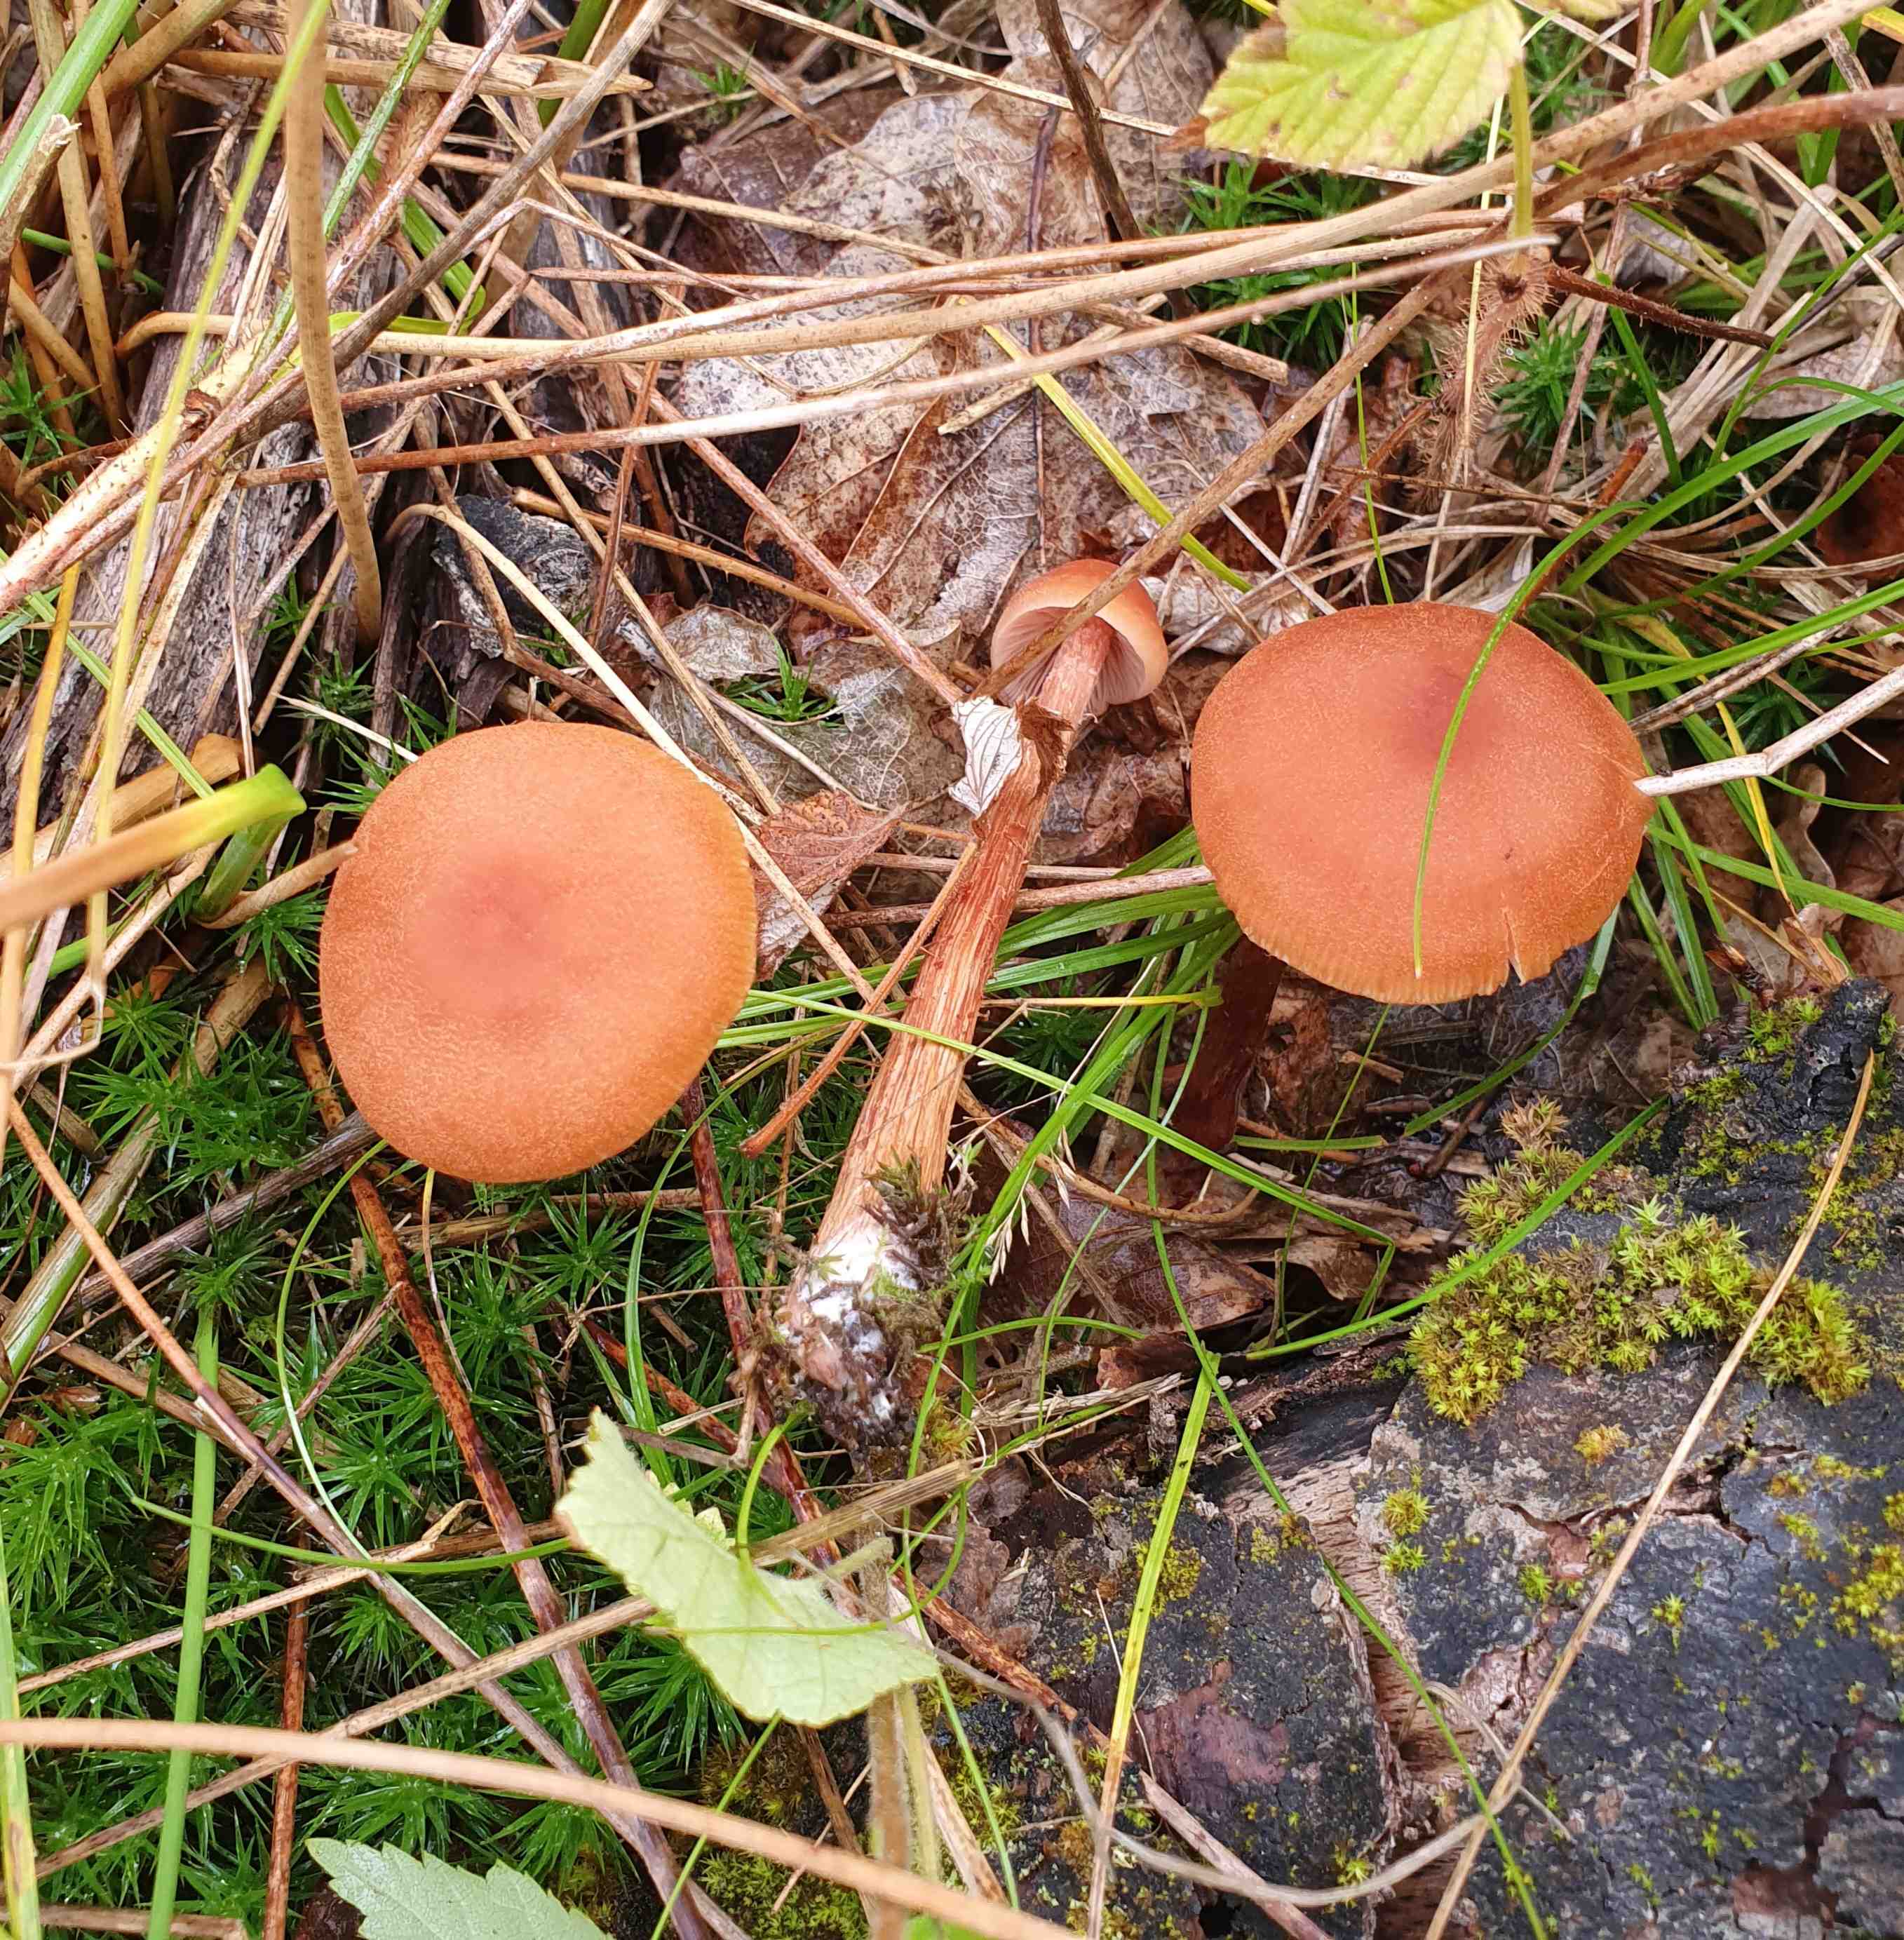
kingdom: Fungi
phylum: Basidiomycota
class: Agaricomycetes
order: Agaricales
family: Hydnangiaceae
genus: Laccaria
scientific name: Laccaria laccata
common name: rød ametysthat
